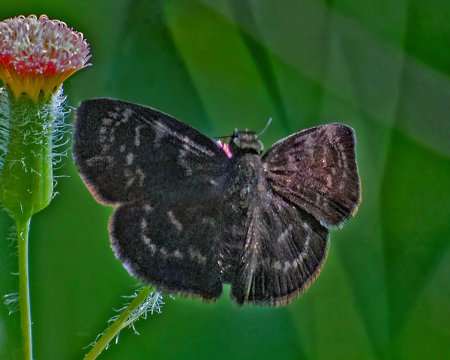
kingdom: Animalia
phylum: Arthropoda
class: Insecta
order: Lepidoptera
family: Hesperiidae
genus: Ouleus
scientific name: Ouleus fridericus
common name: Fridericus Spreadwing
